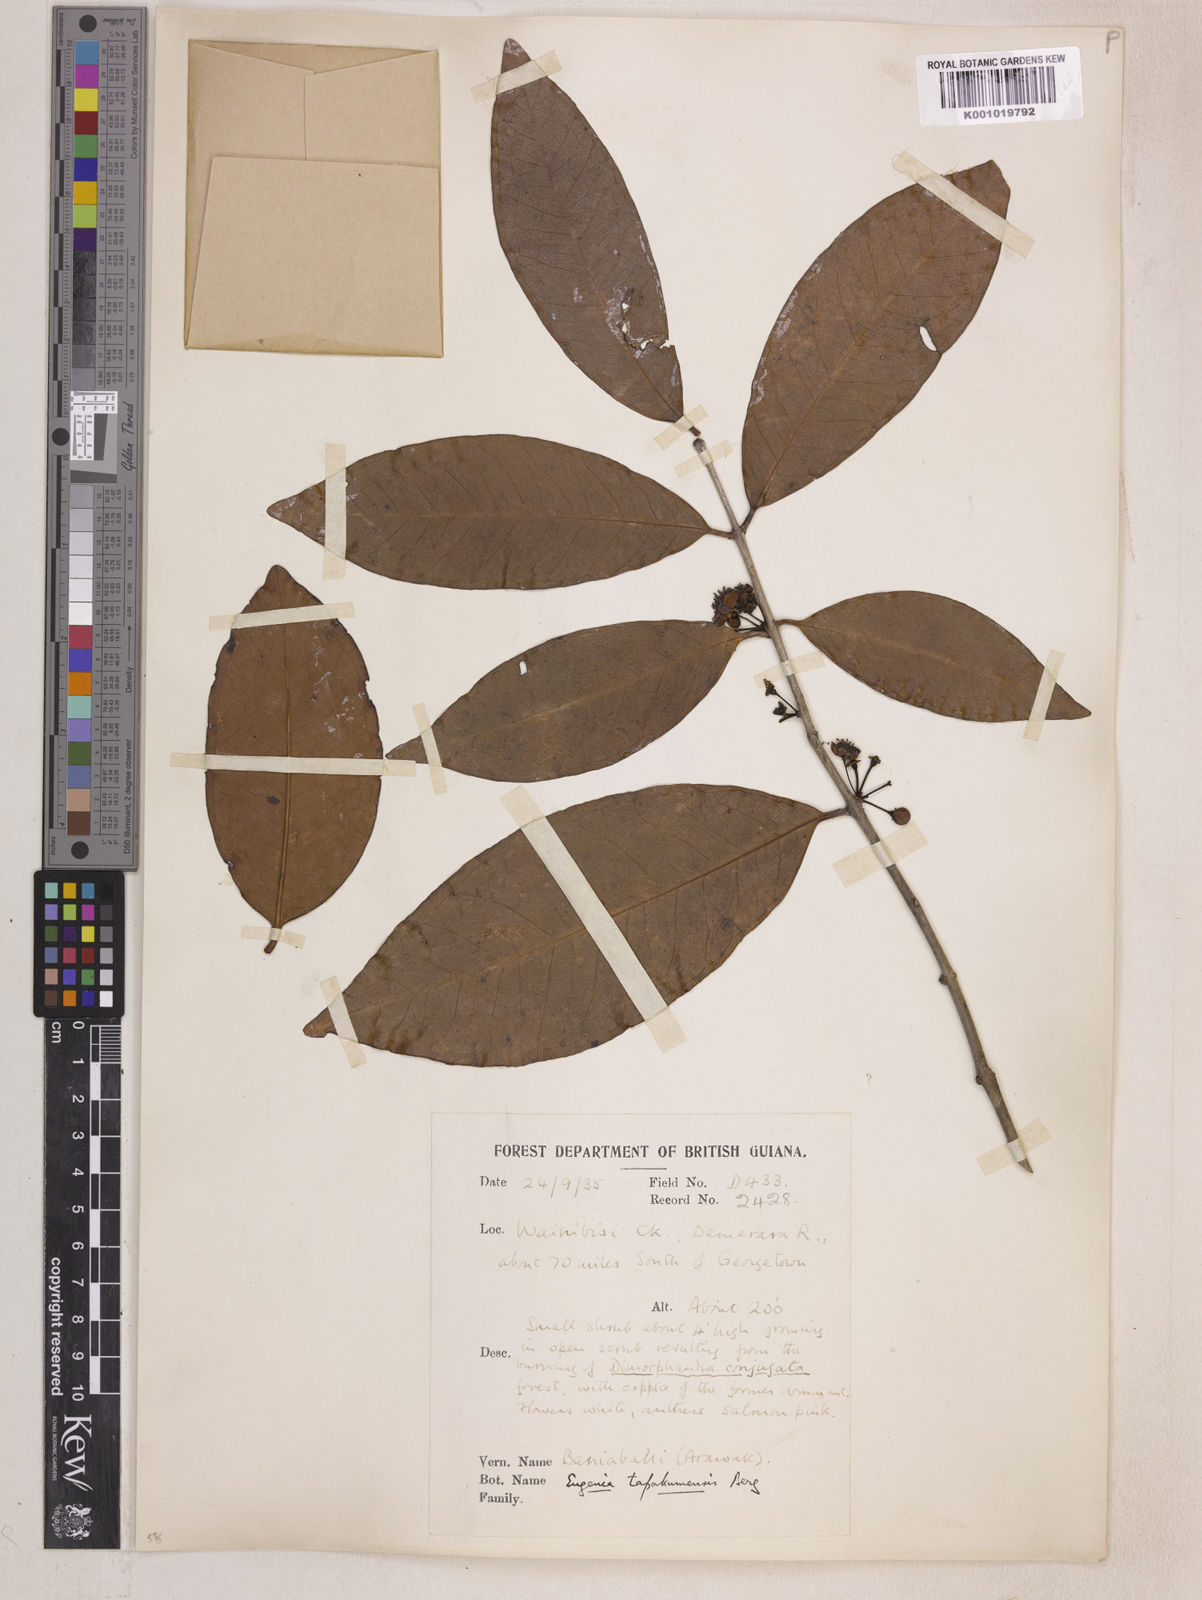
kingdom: Plantae
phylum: Tracheophyta
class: Magnoliopsida
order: Myrtales
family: Myrtaceae
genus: Eugenia
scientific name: Eugenia stictopetala
